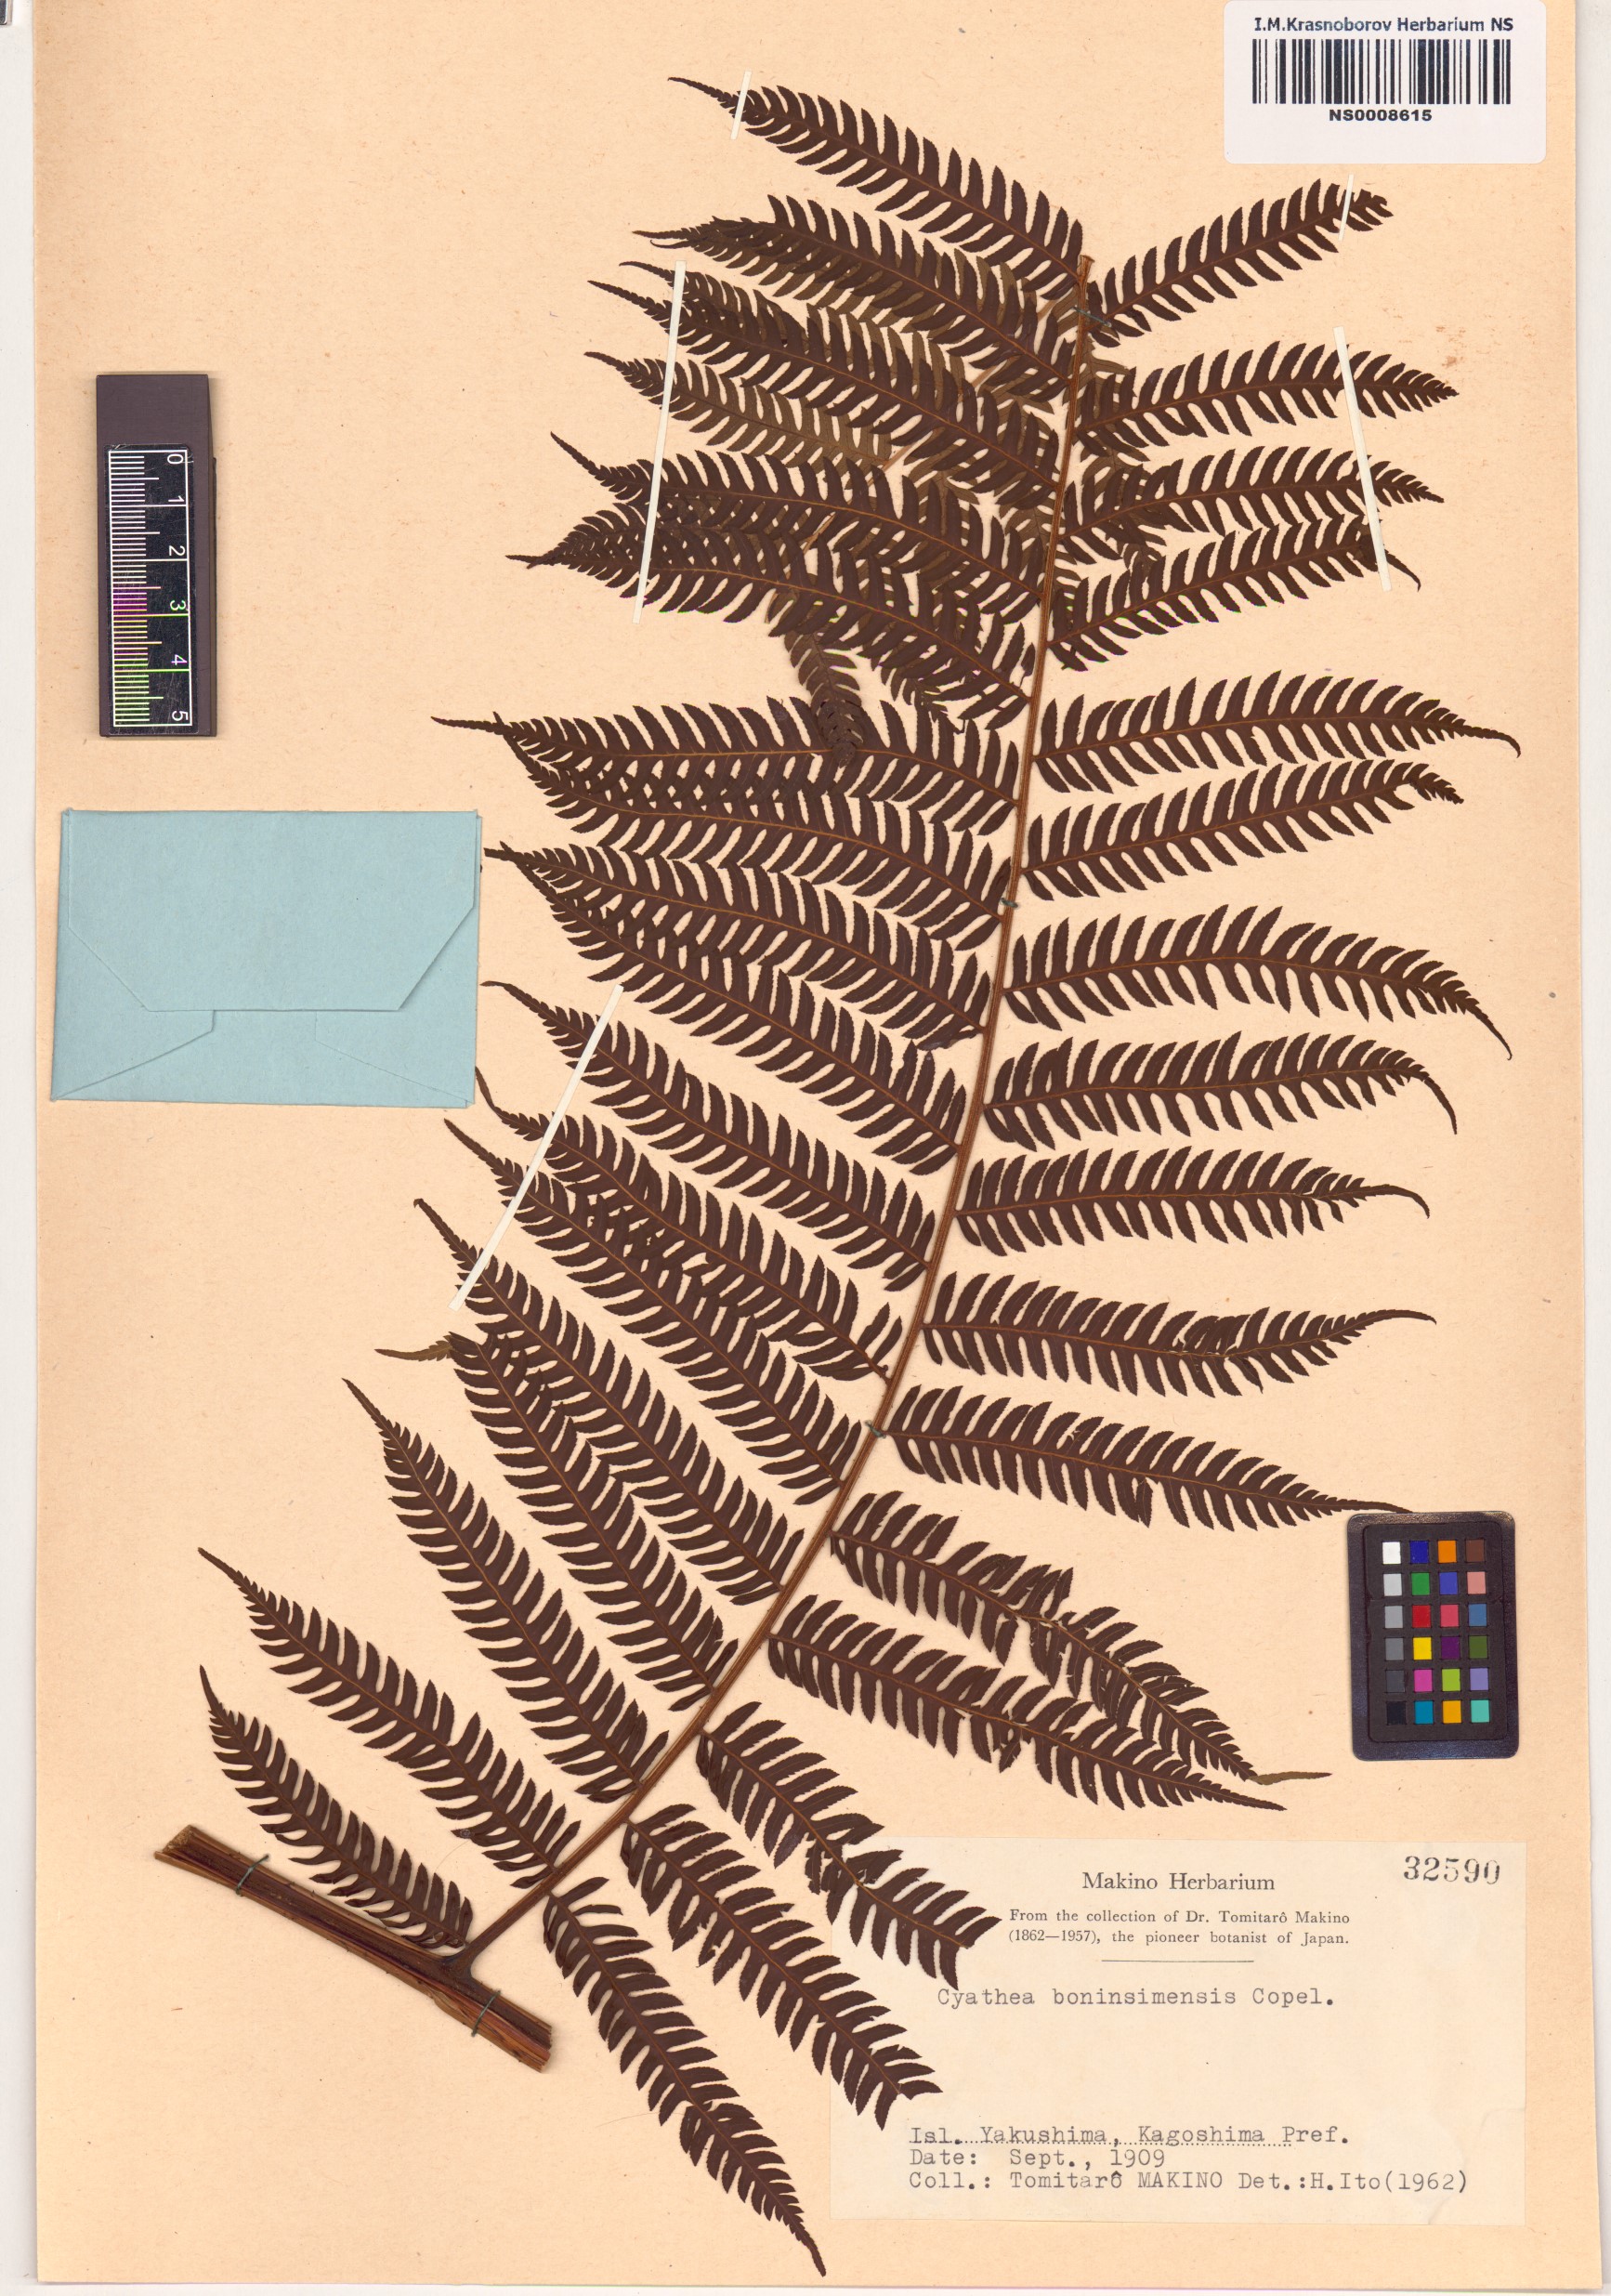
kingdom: Plantae
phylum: Tracheophyta
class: Polypodiopsida
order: Cyatheales
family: Cyatheaceae
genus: Alsophila
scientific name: Alsophila spinulosa
